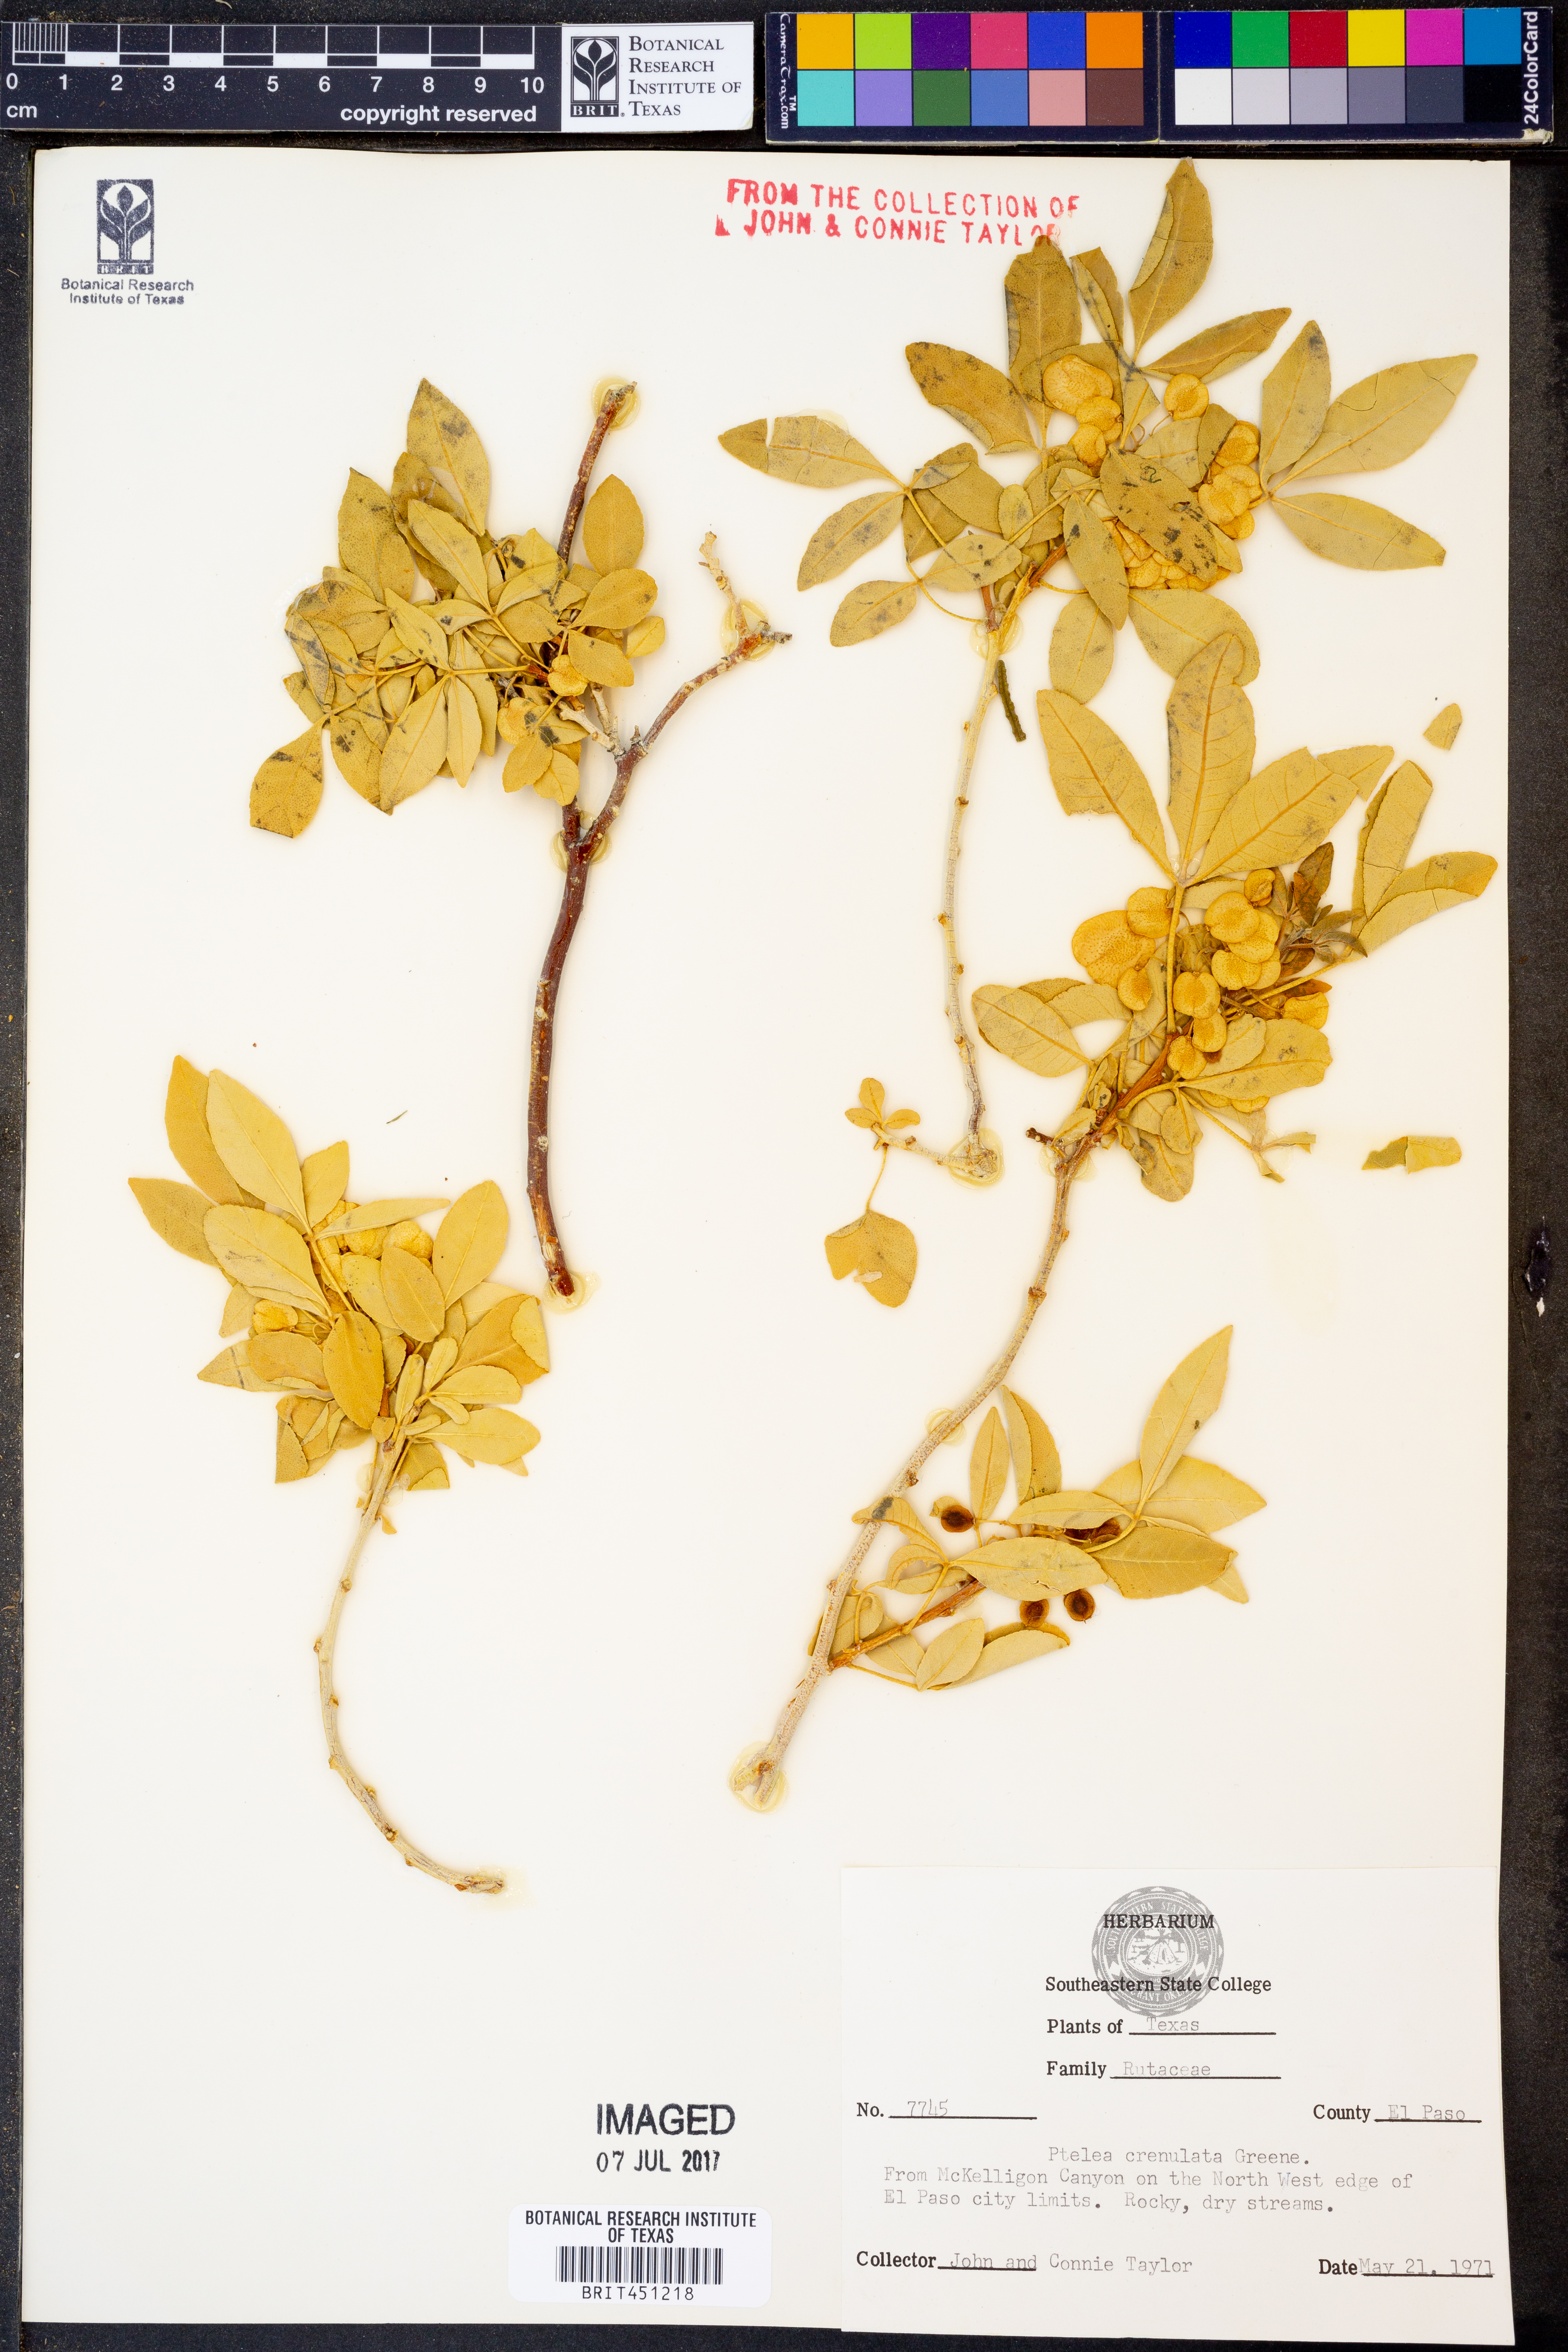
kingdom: Plantae
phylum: Tracheophyta
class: Magnoliopsida
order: Sapindales
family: Rutaceae
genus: Ptelea
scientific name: Ptelea crenulata
